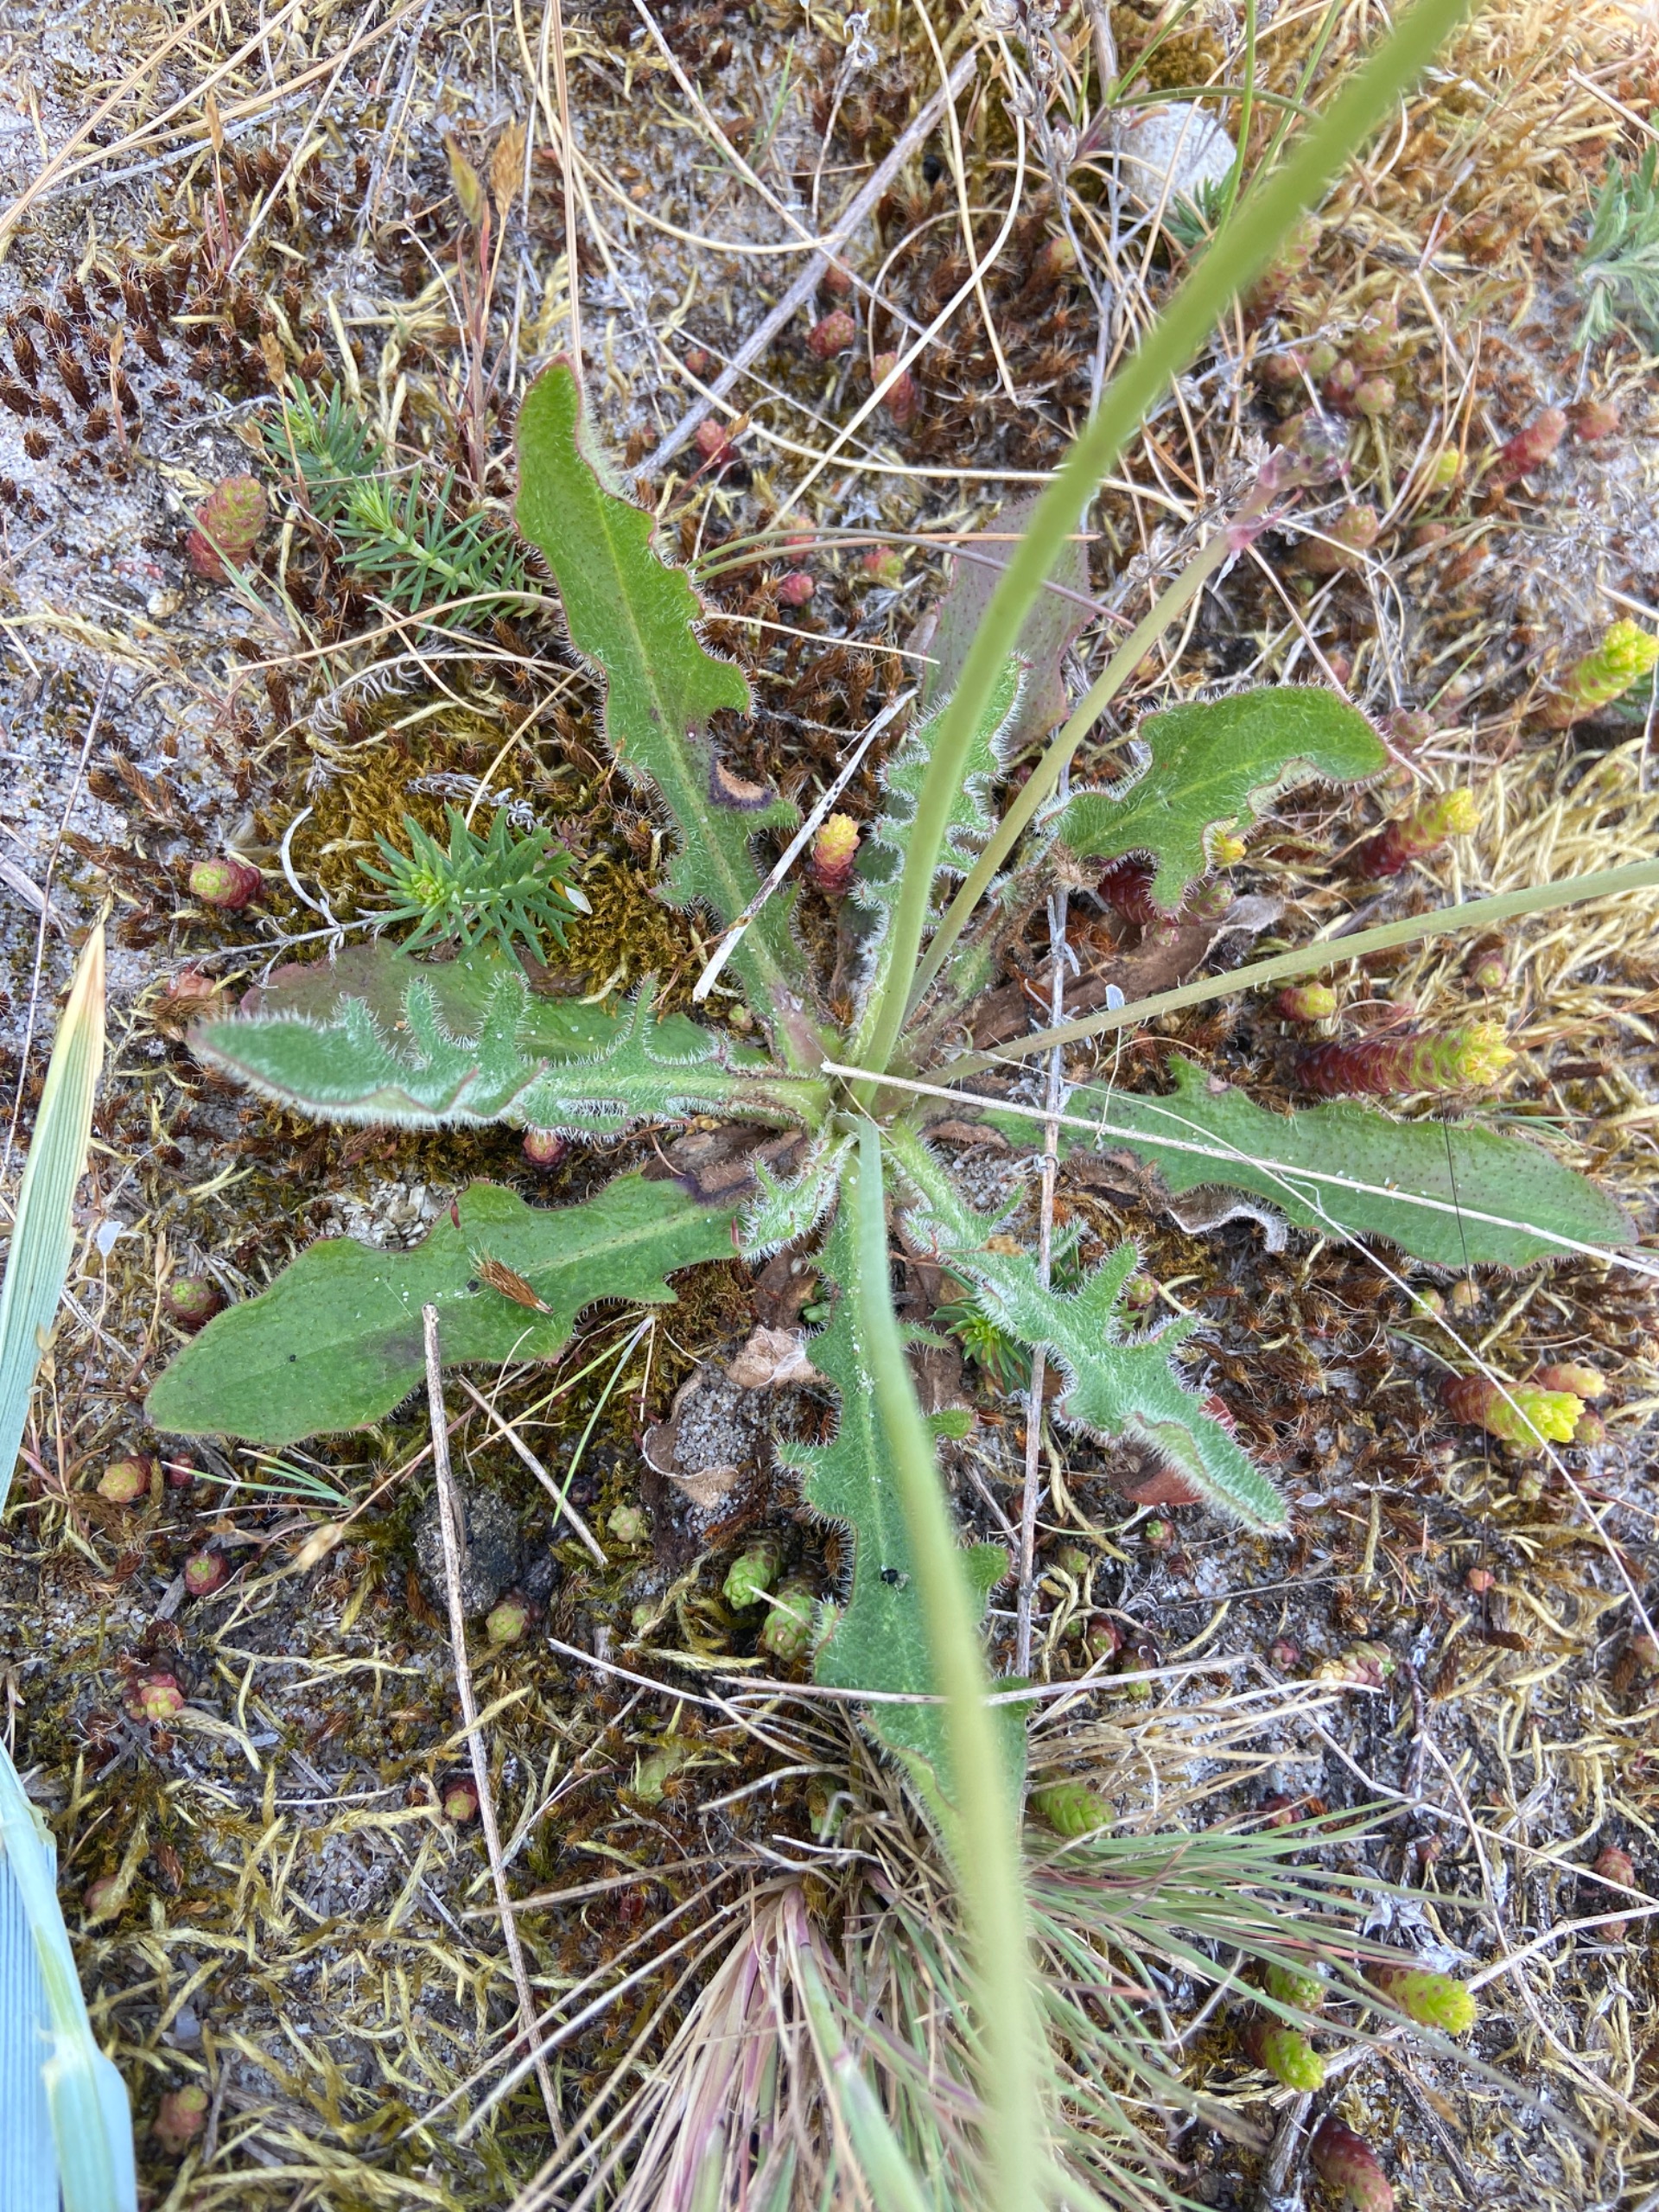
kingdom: Plantae
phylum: Tracheophyta
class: Magnoliopsida
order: Asterales
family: Asteraceae
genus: Hypochaeris
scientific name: Hypochaeris radicata
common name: Almindelig kongepen
